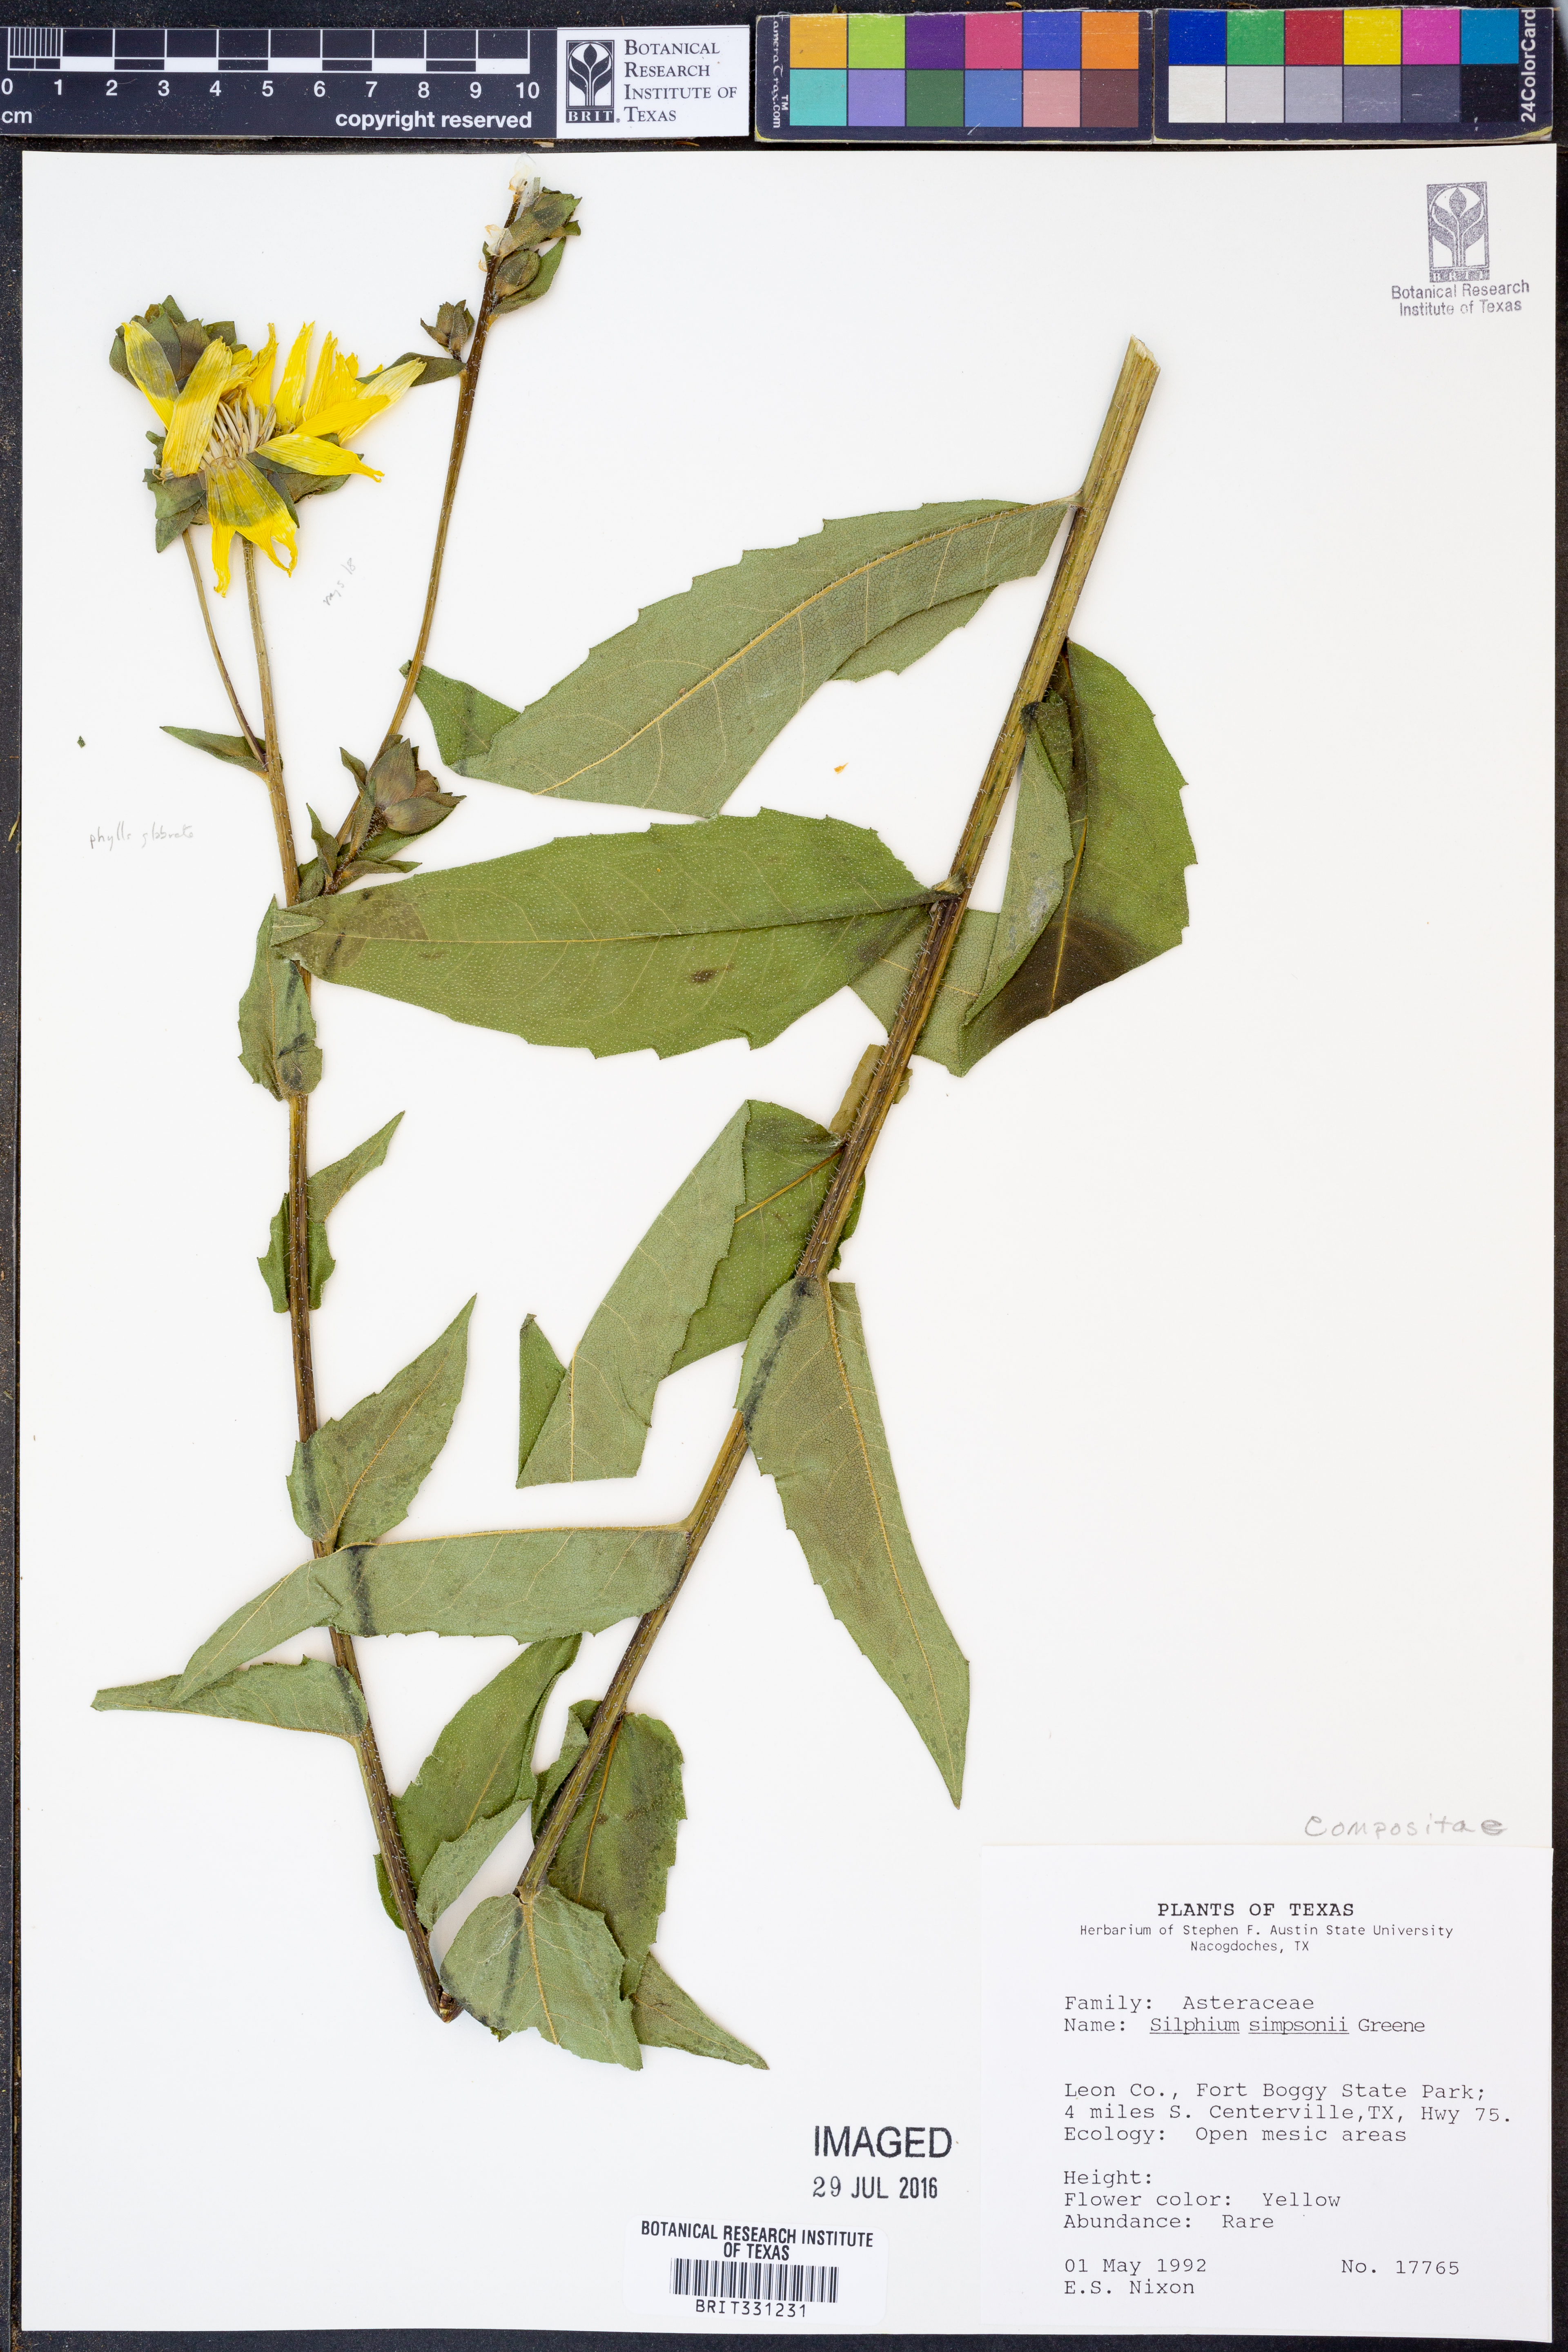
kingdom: Plantae
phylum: Tracheophyta
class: Magnoliopsida
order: Asterales
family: Asteraceae
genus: Silphium
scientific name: Silphium asteriscus
